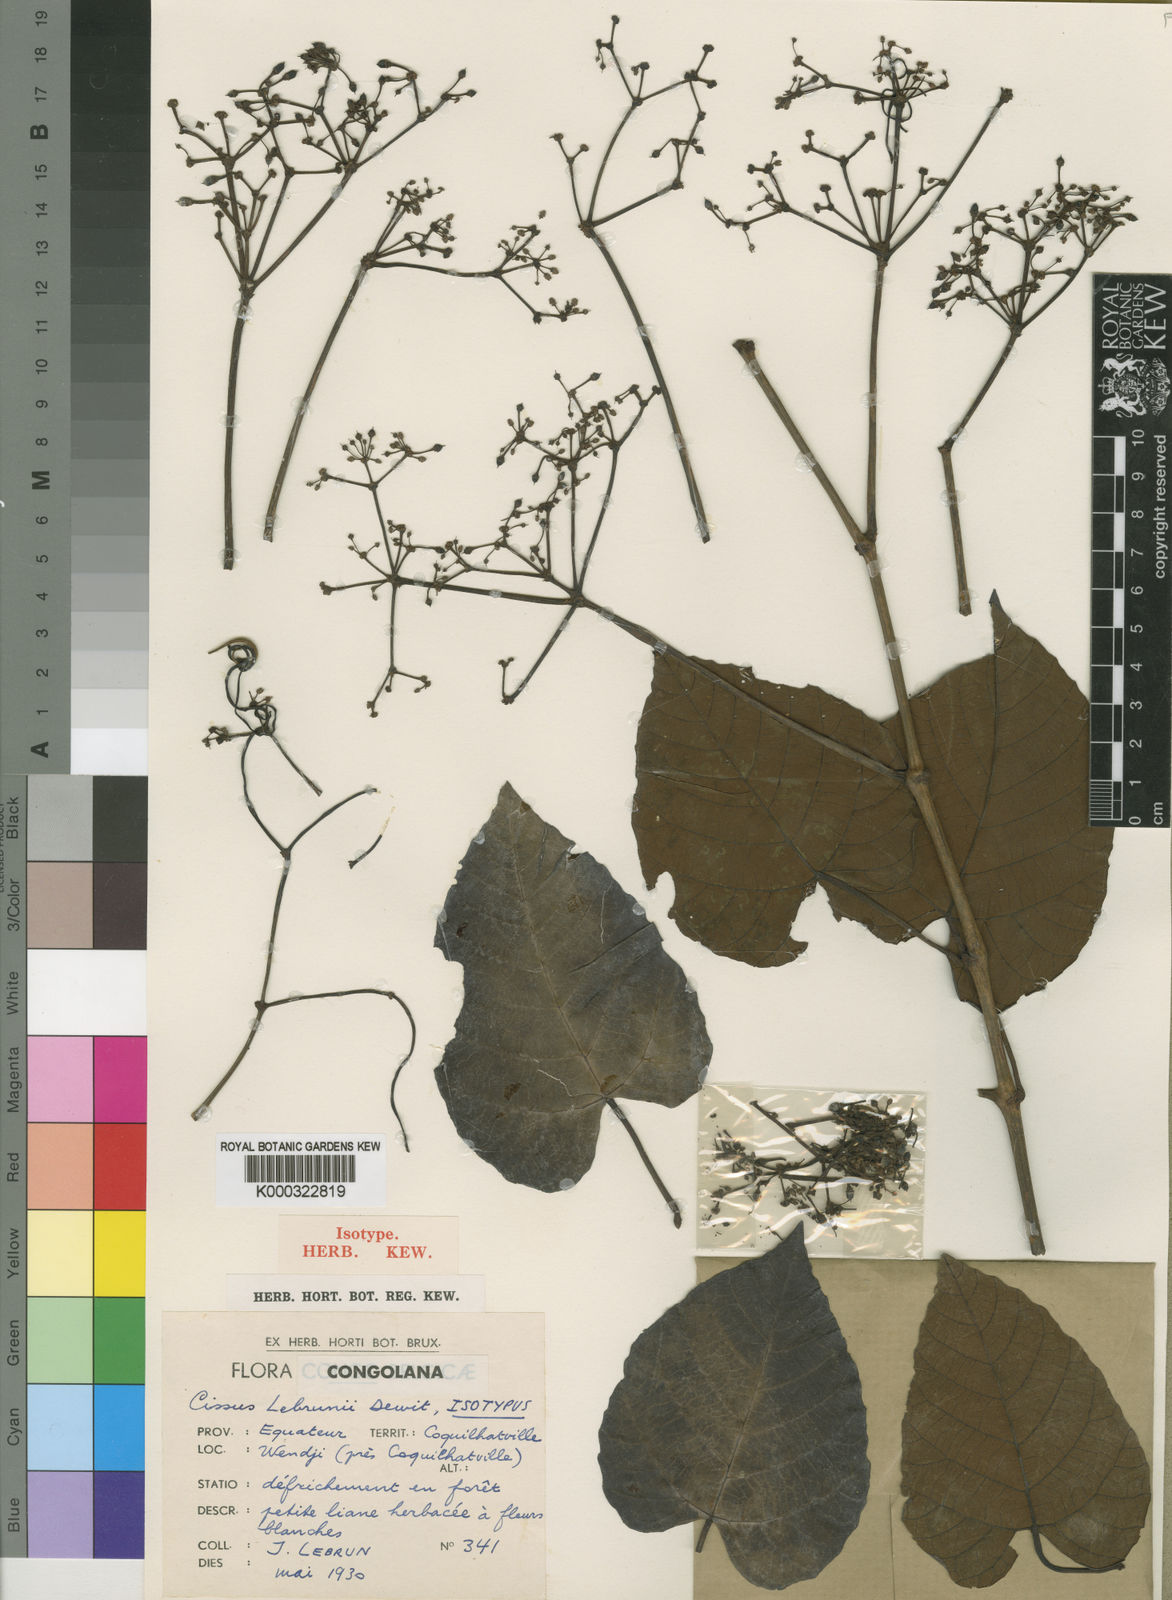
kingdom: Plantae
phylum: Tracheophyta
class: Magnoliopsida
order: Vitales
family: Vitaceae
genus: Cissus
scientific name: Cissus lebrunii
